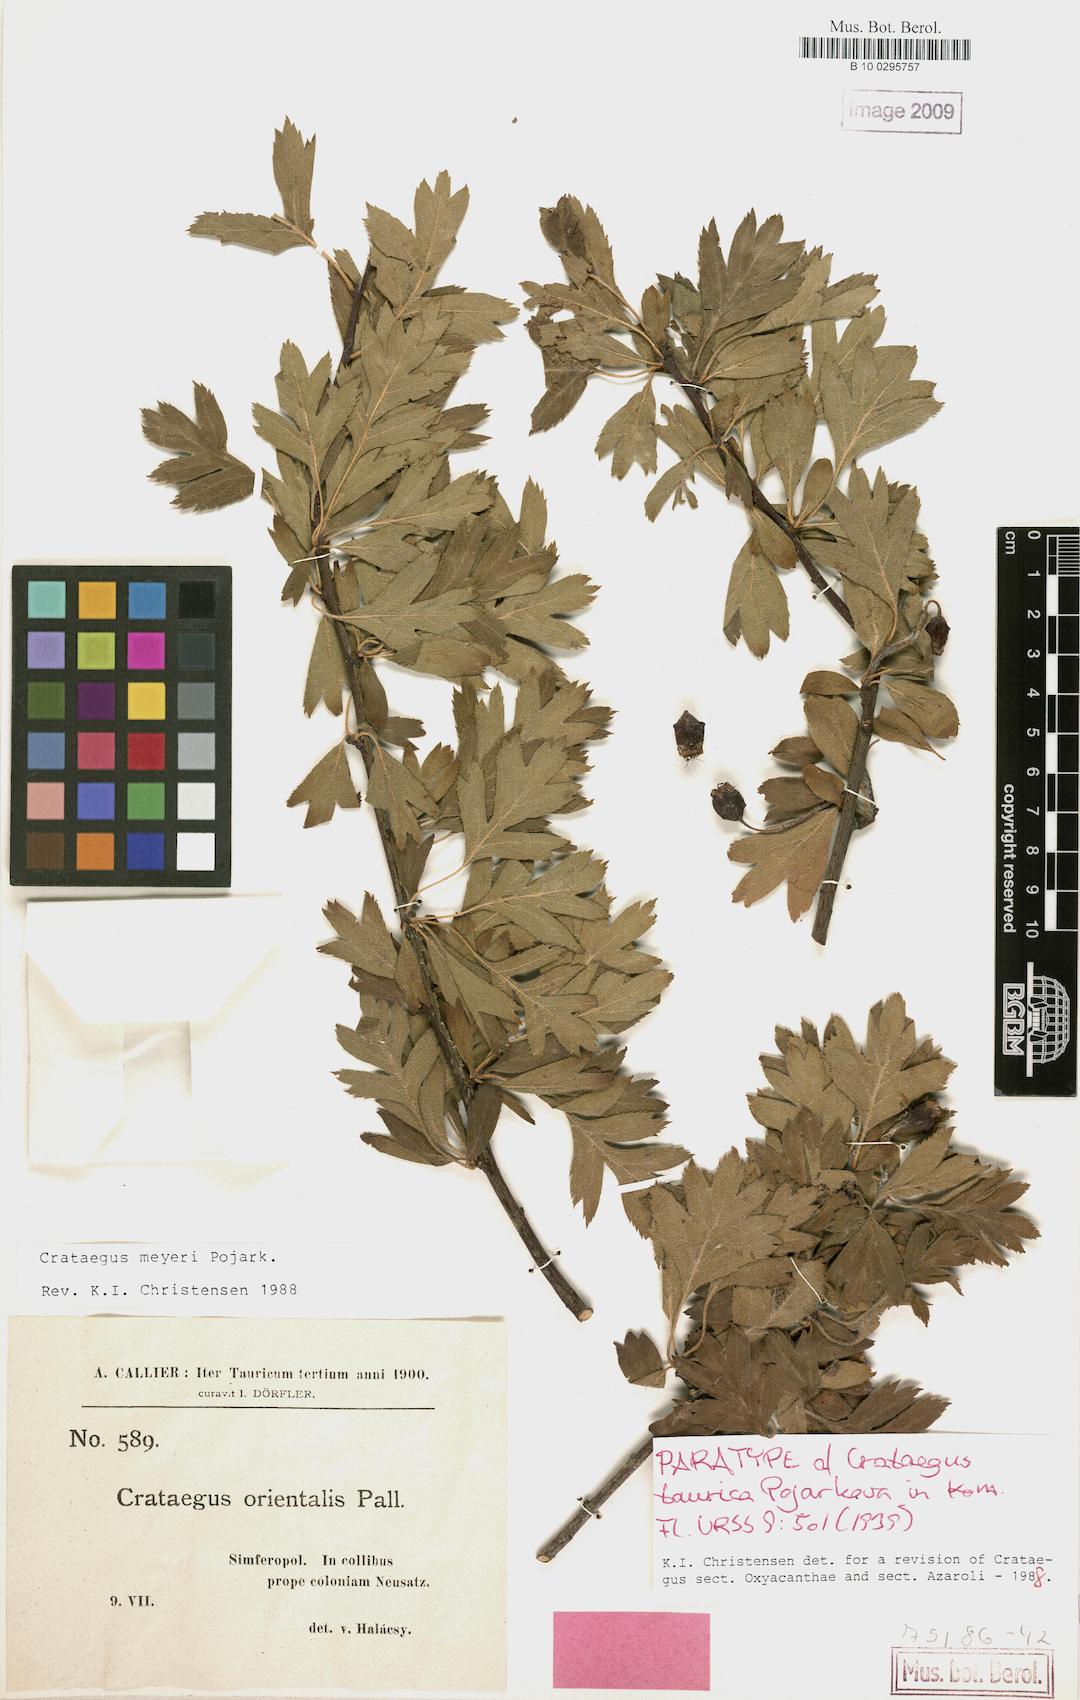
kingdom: Plantae
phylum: Tracheophyta
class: Magnoliopsida
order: Rosales
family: Rosaceae
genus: Crataegus
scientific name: Crataegus meyeri
